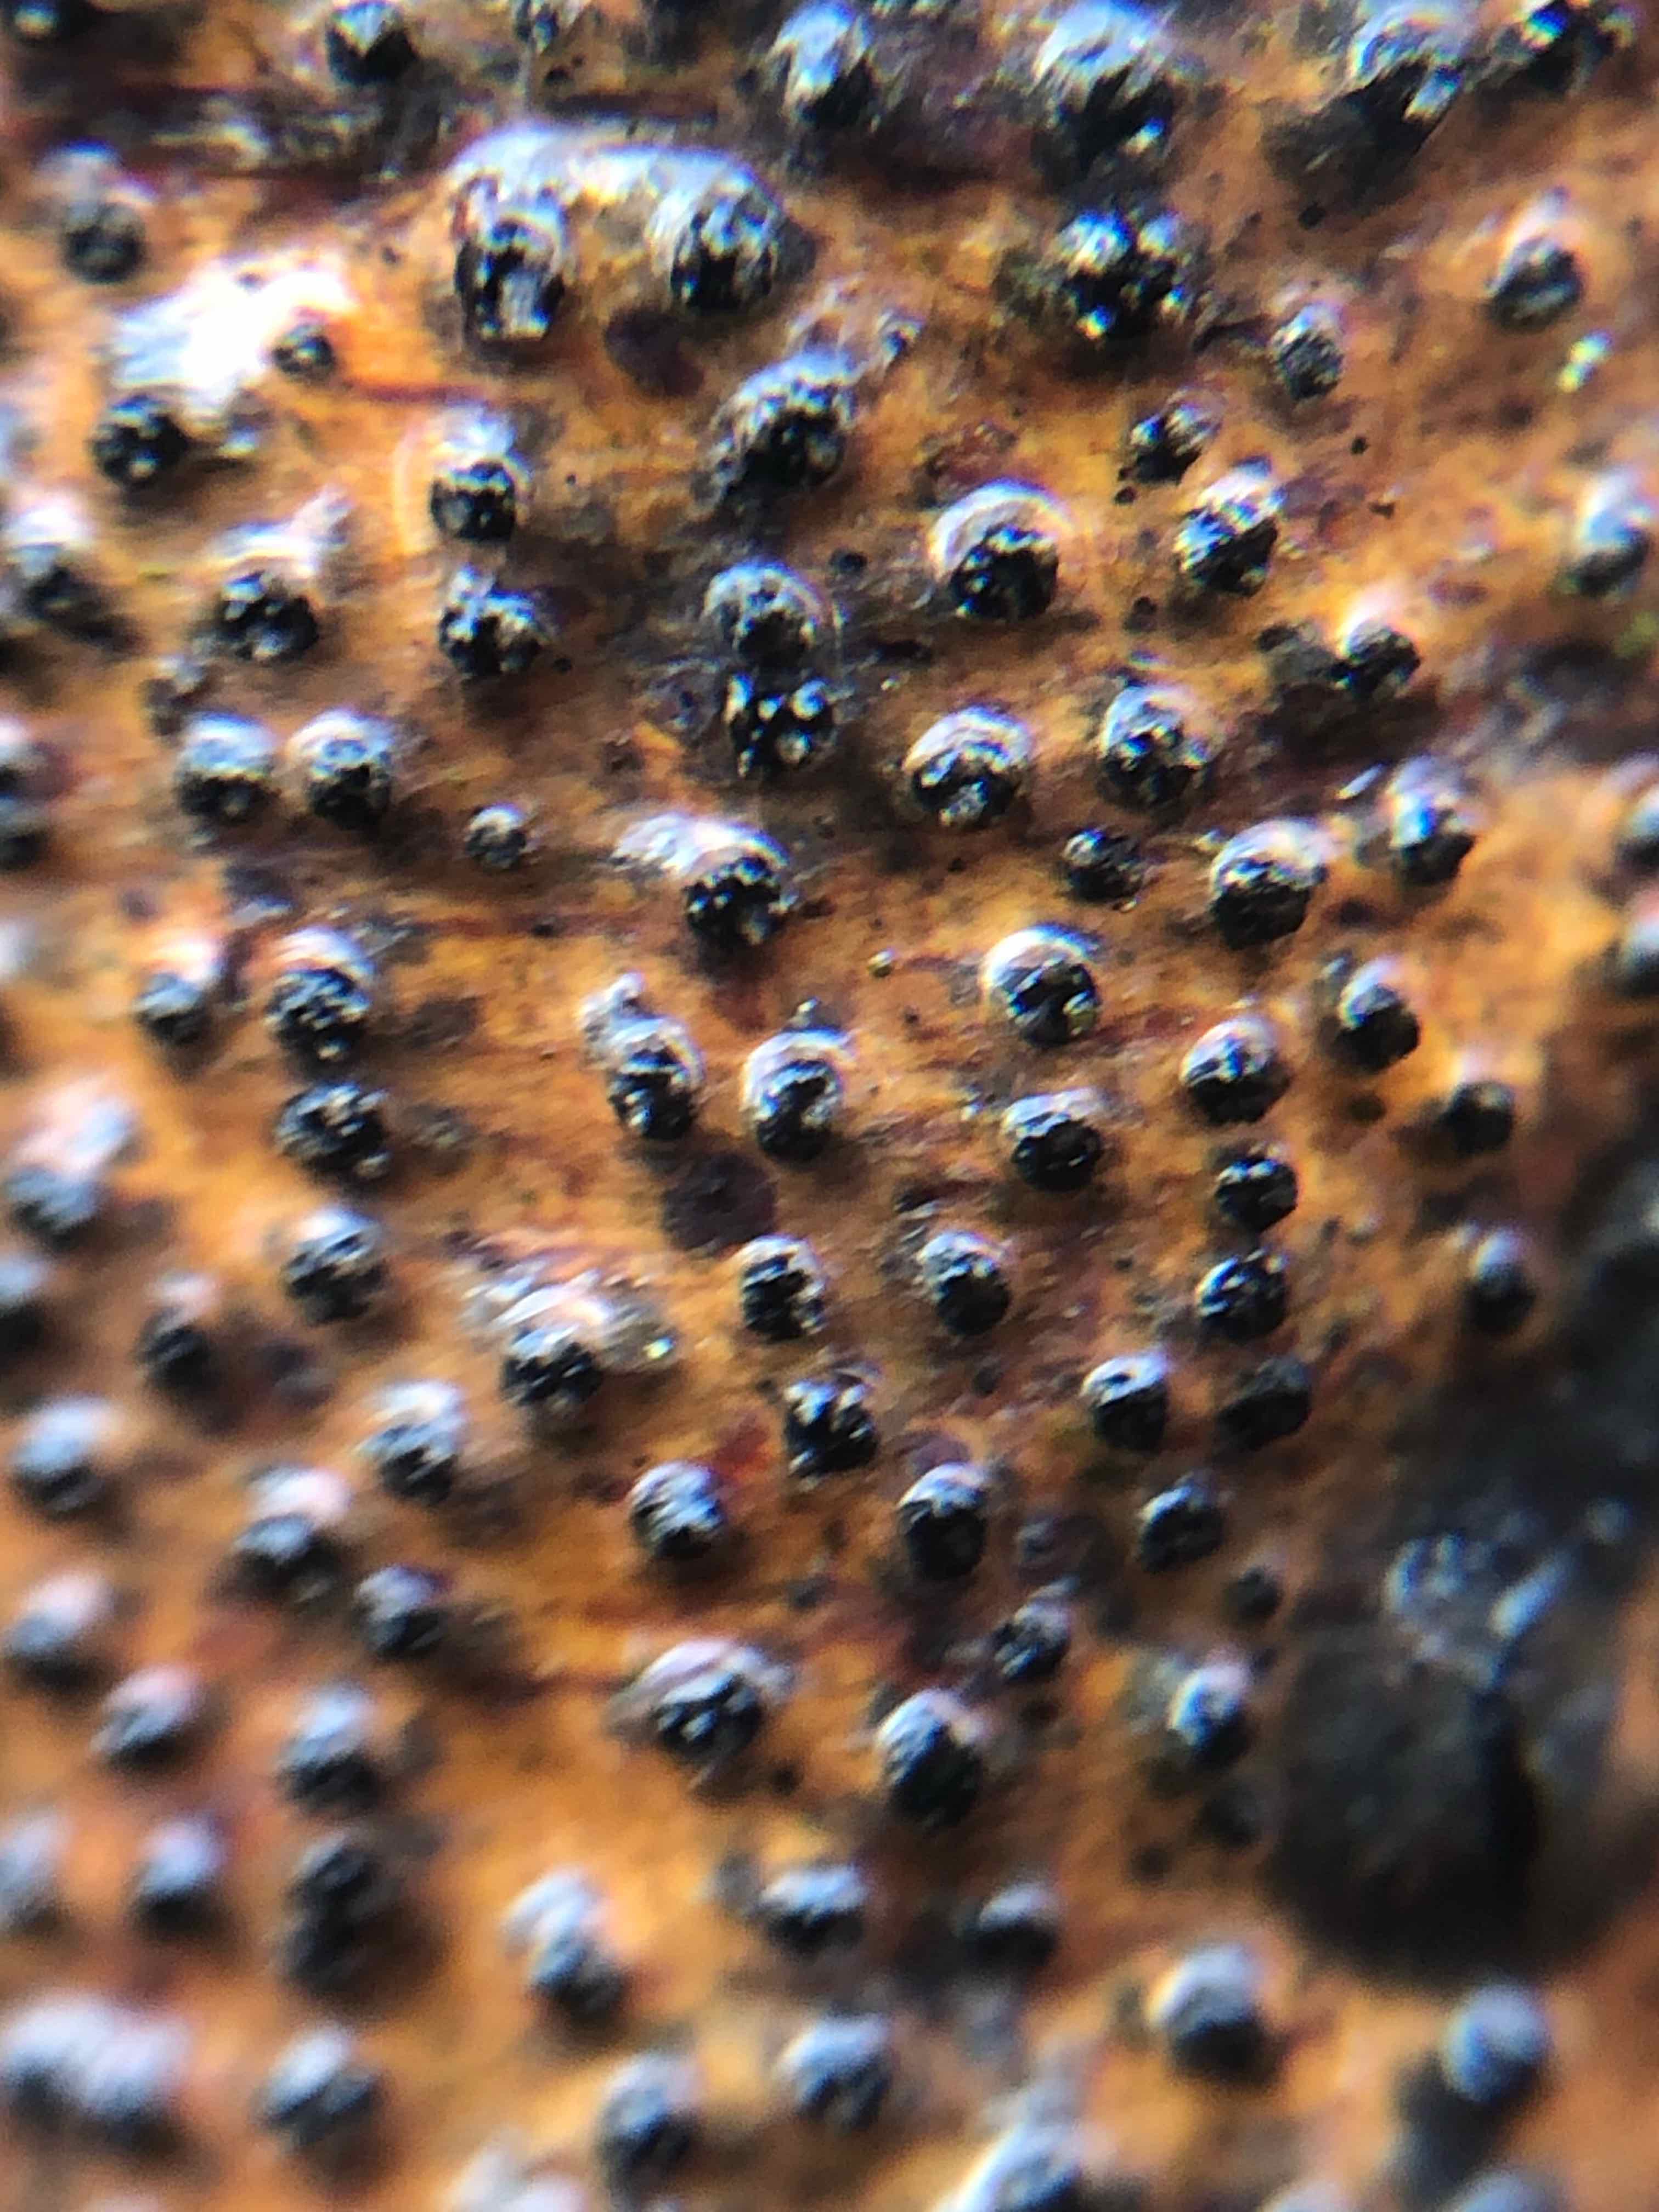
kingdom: Fungi
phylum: Ascomycota
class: Sordariomycetes
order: Xylariales
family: Diatrypaceae
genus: Eutypella
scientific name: Eutypella quaternata
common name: bøge-korsprik
